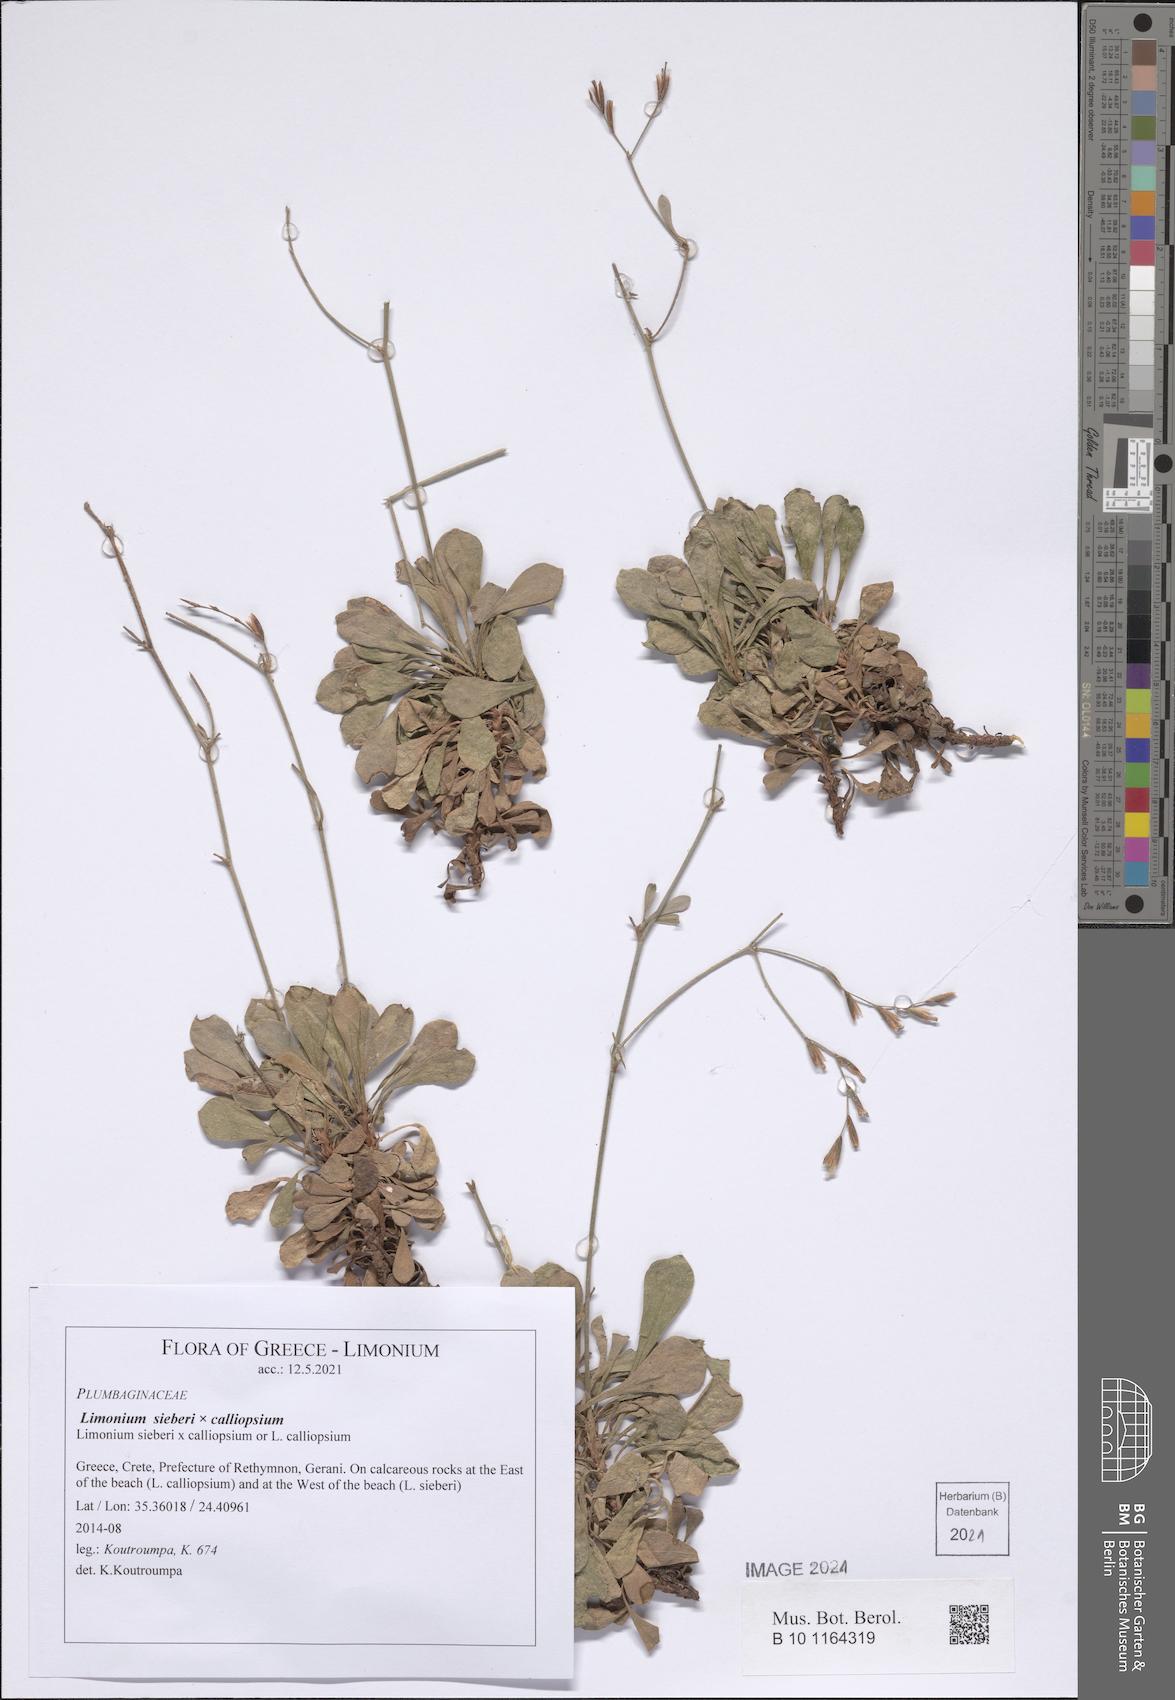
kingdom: Plantae
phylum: Tracheophyta
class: Magnoliopsida
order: Caryophyllales
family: Plumbaginaceae
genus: Limonium
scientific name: Limonium sieberi
